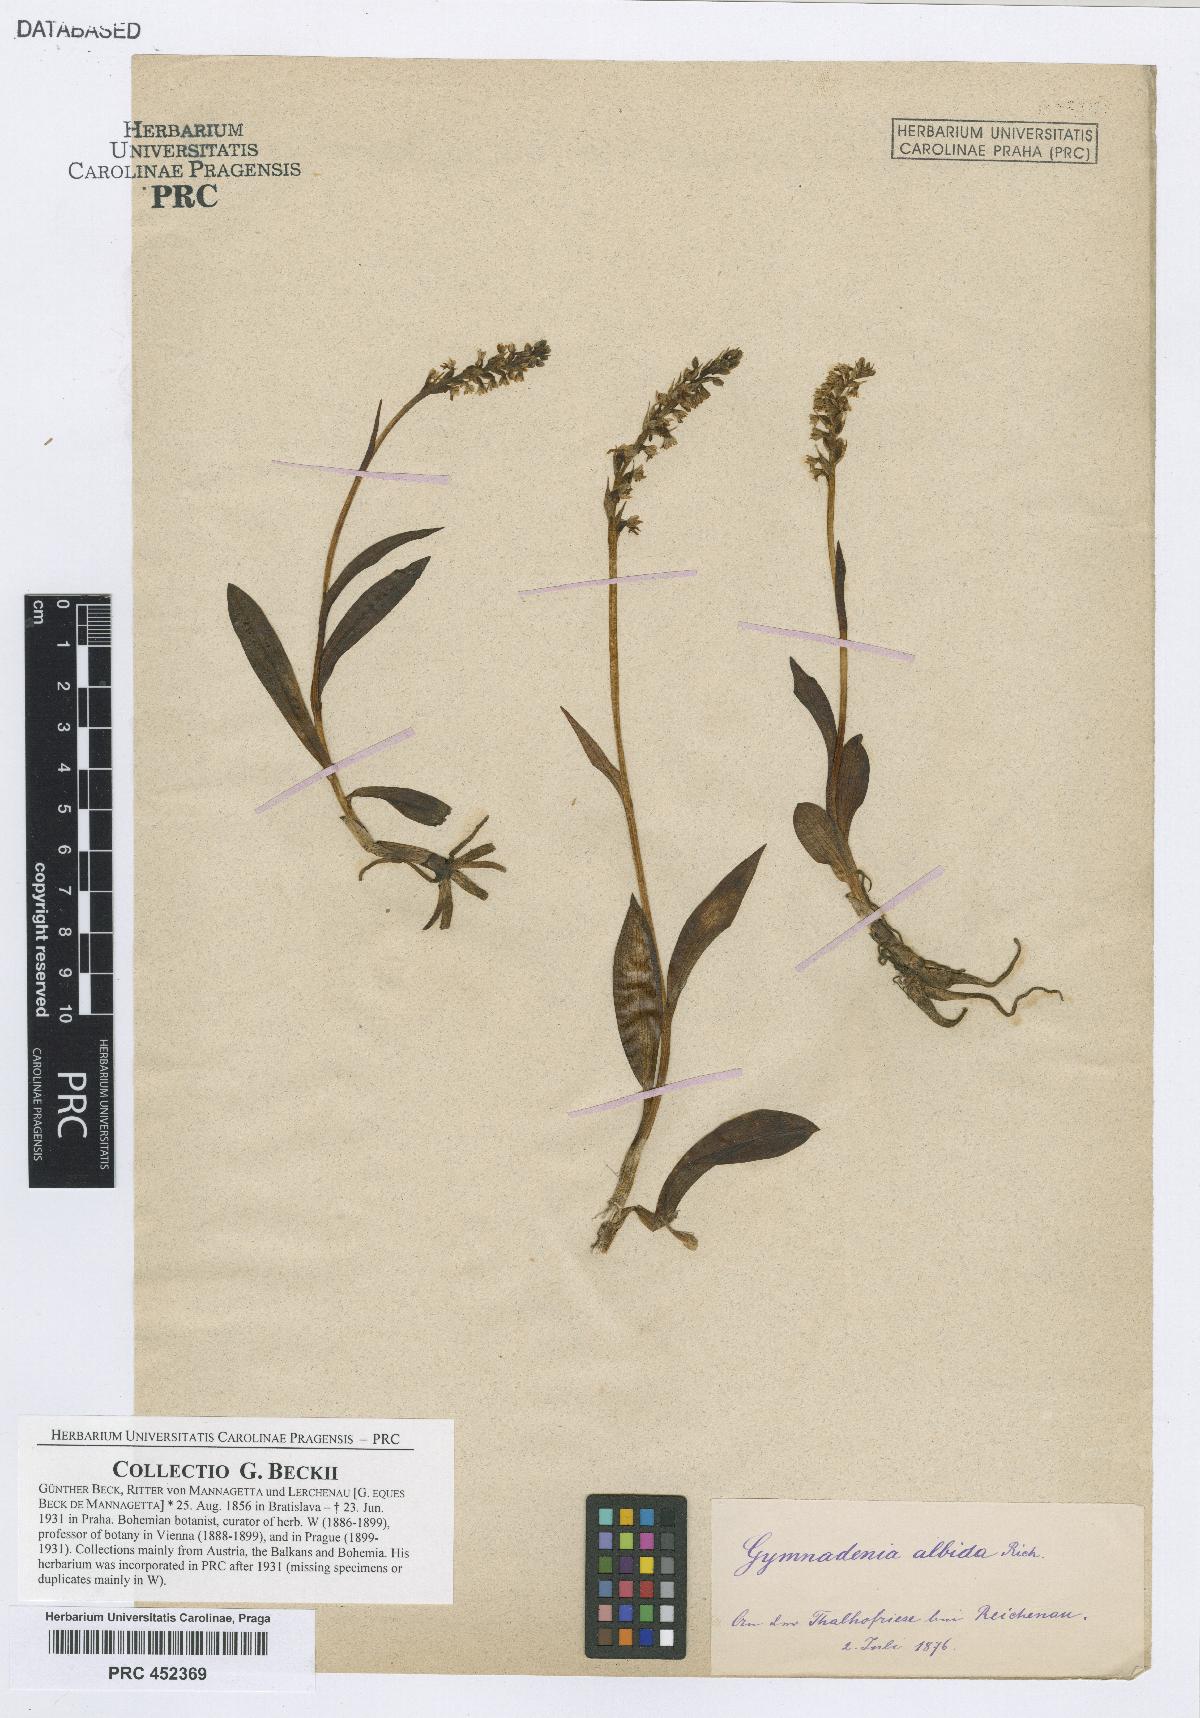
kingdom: Plantae
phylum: Tracheophyta
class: Liliopsida
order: Asparagales
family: Orchidaceae
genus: Pseudorchis
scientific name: Pseudorchis albida
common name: Small-white orchid
